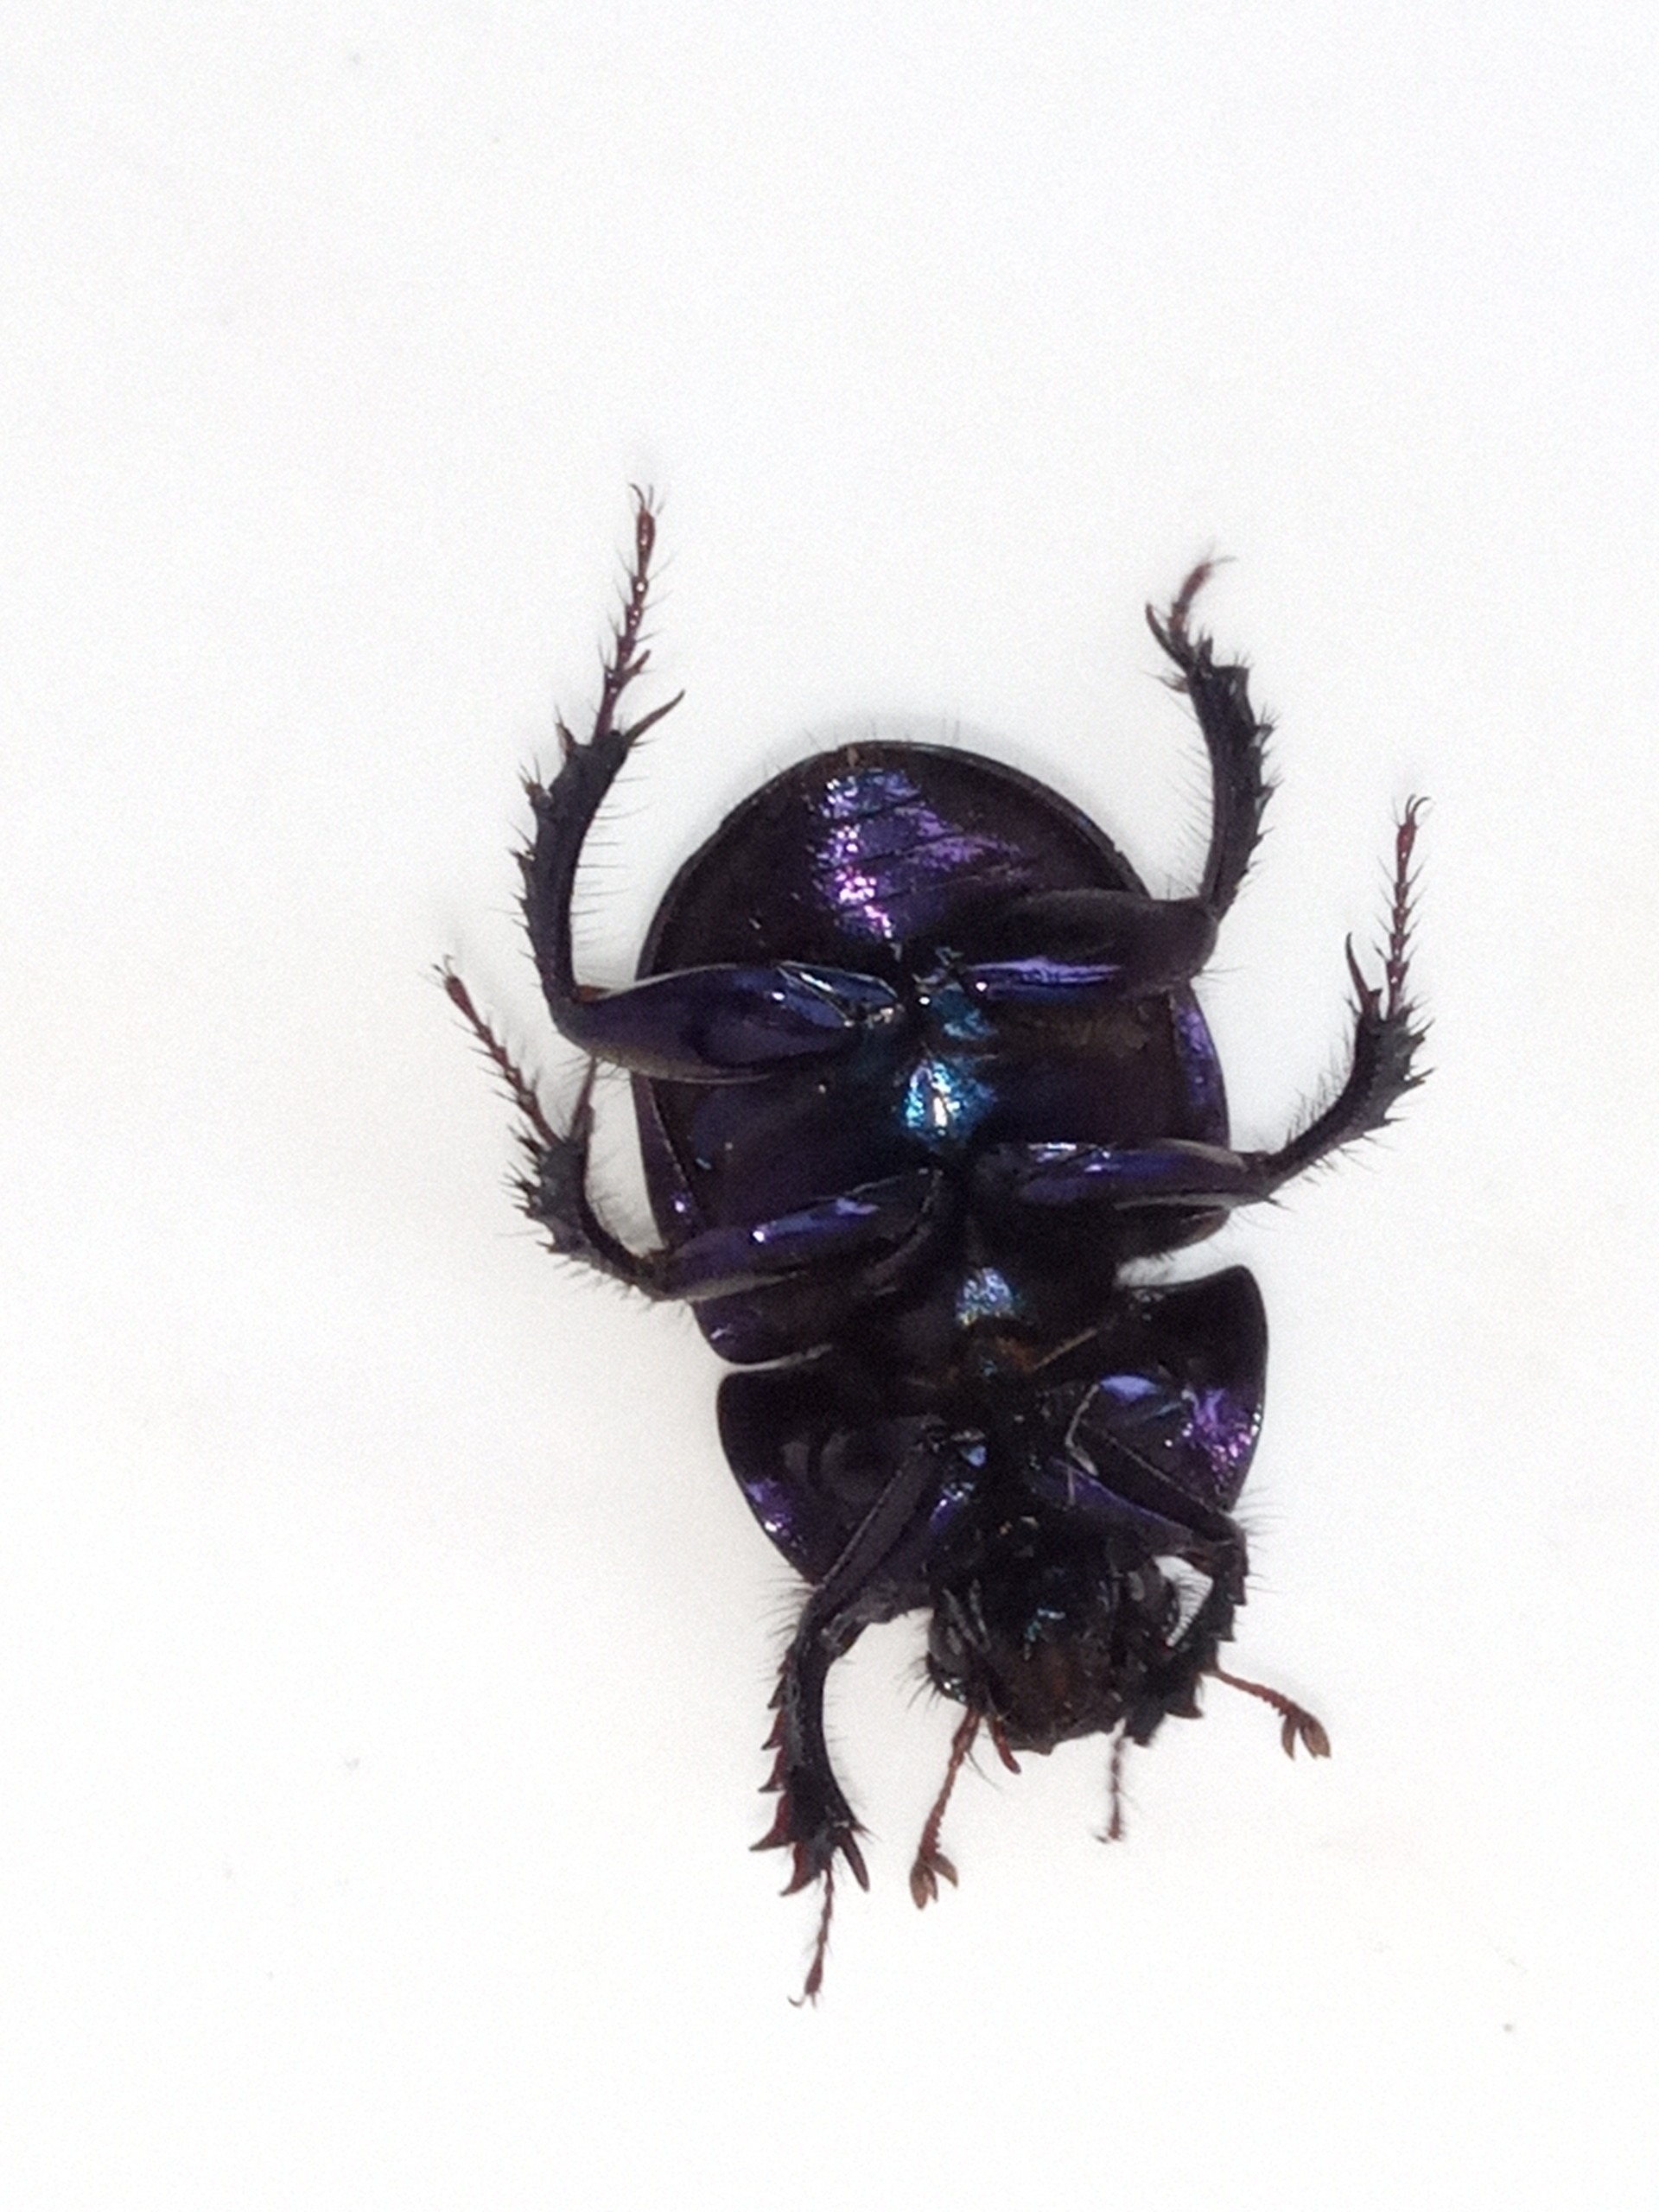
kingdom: Animalia
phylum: Arthropoda
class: Insecta
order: Coleoptera
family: Geotrupidae
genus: Anoplotrupes
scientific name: Anoplotrupes stercorosus
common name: Skovskarnbasse
